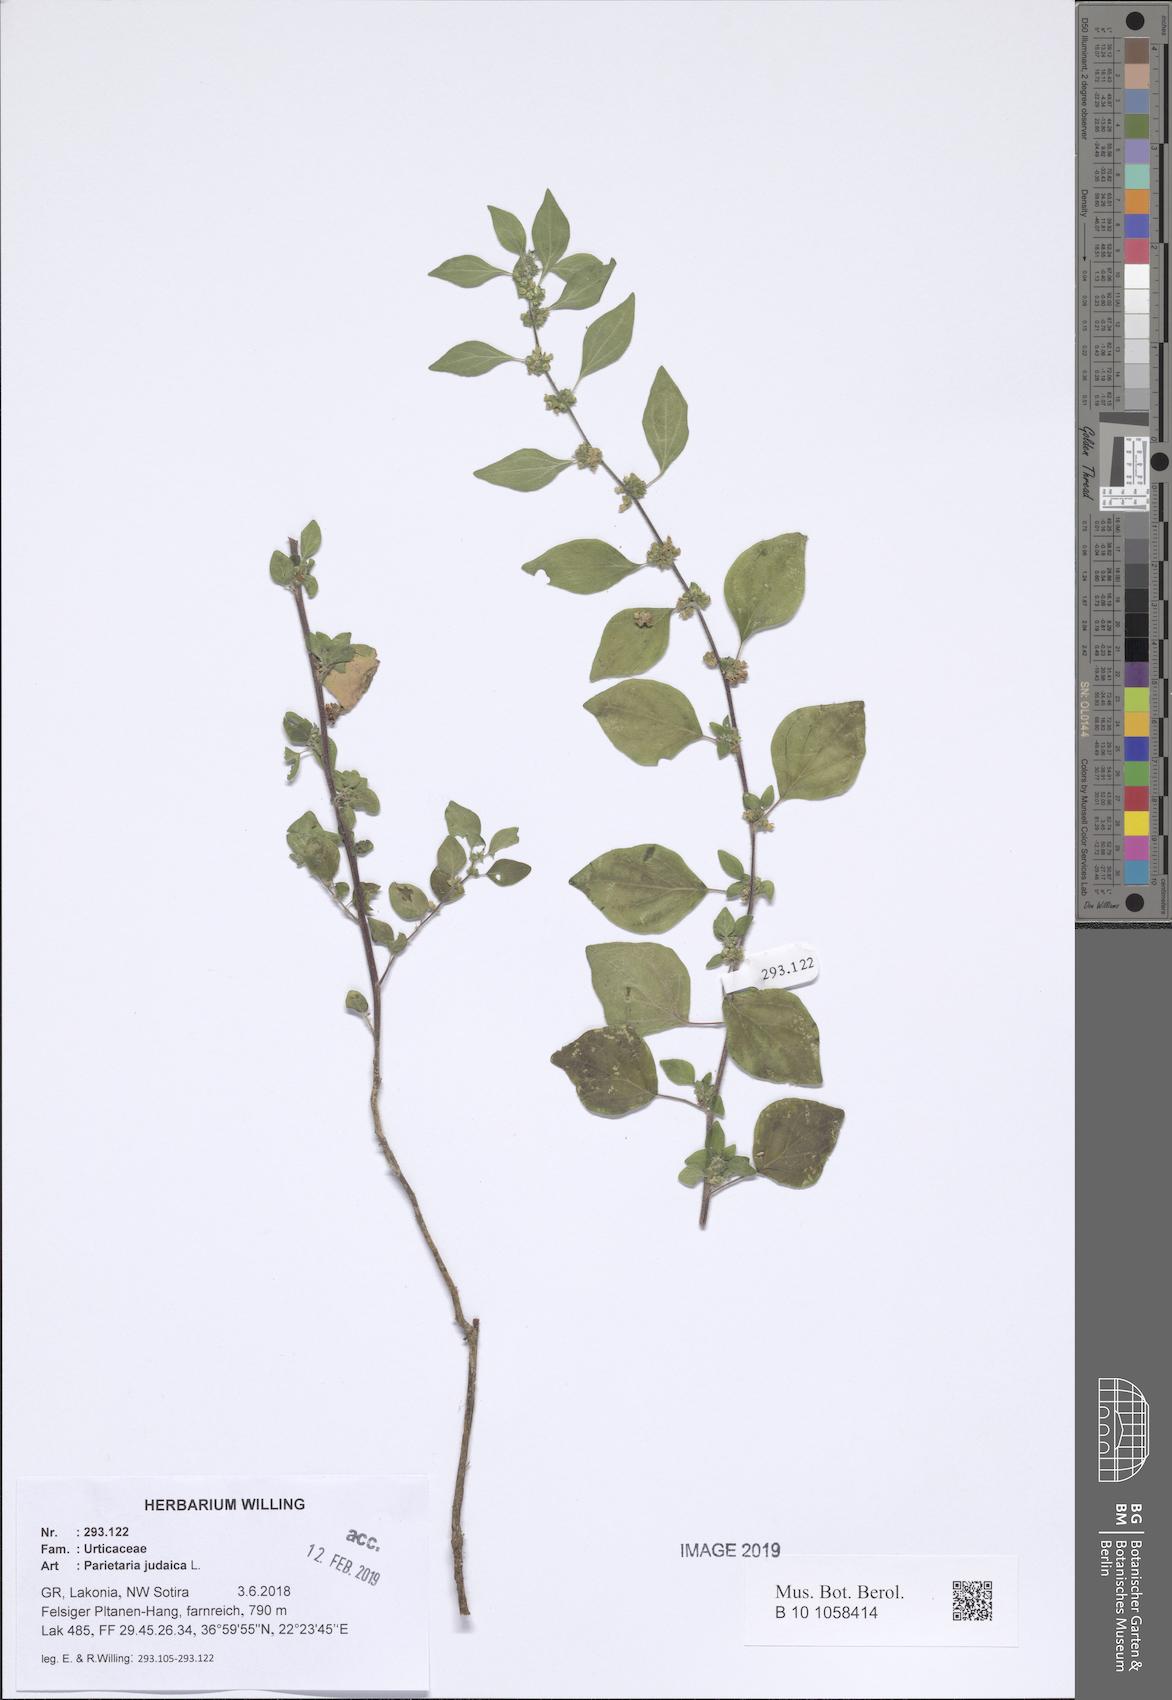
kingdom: Plantae
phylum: Tracheophyta
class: Magnoliopsida
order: Rosales
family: Urticaceae
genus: Parietaria
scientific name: Parietaria judaica
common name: Pellitory-of-the-wall
